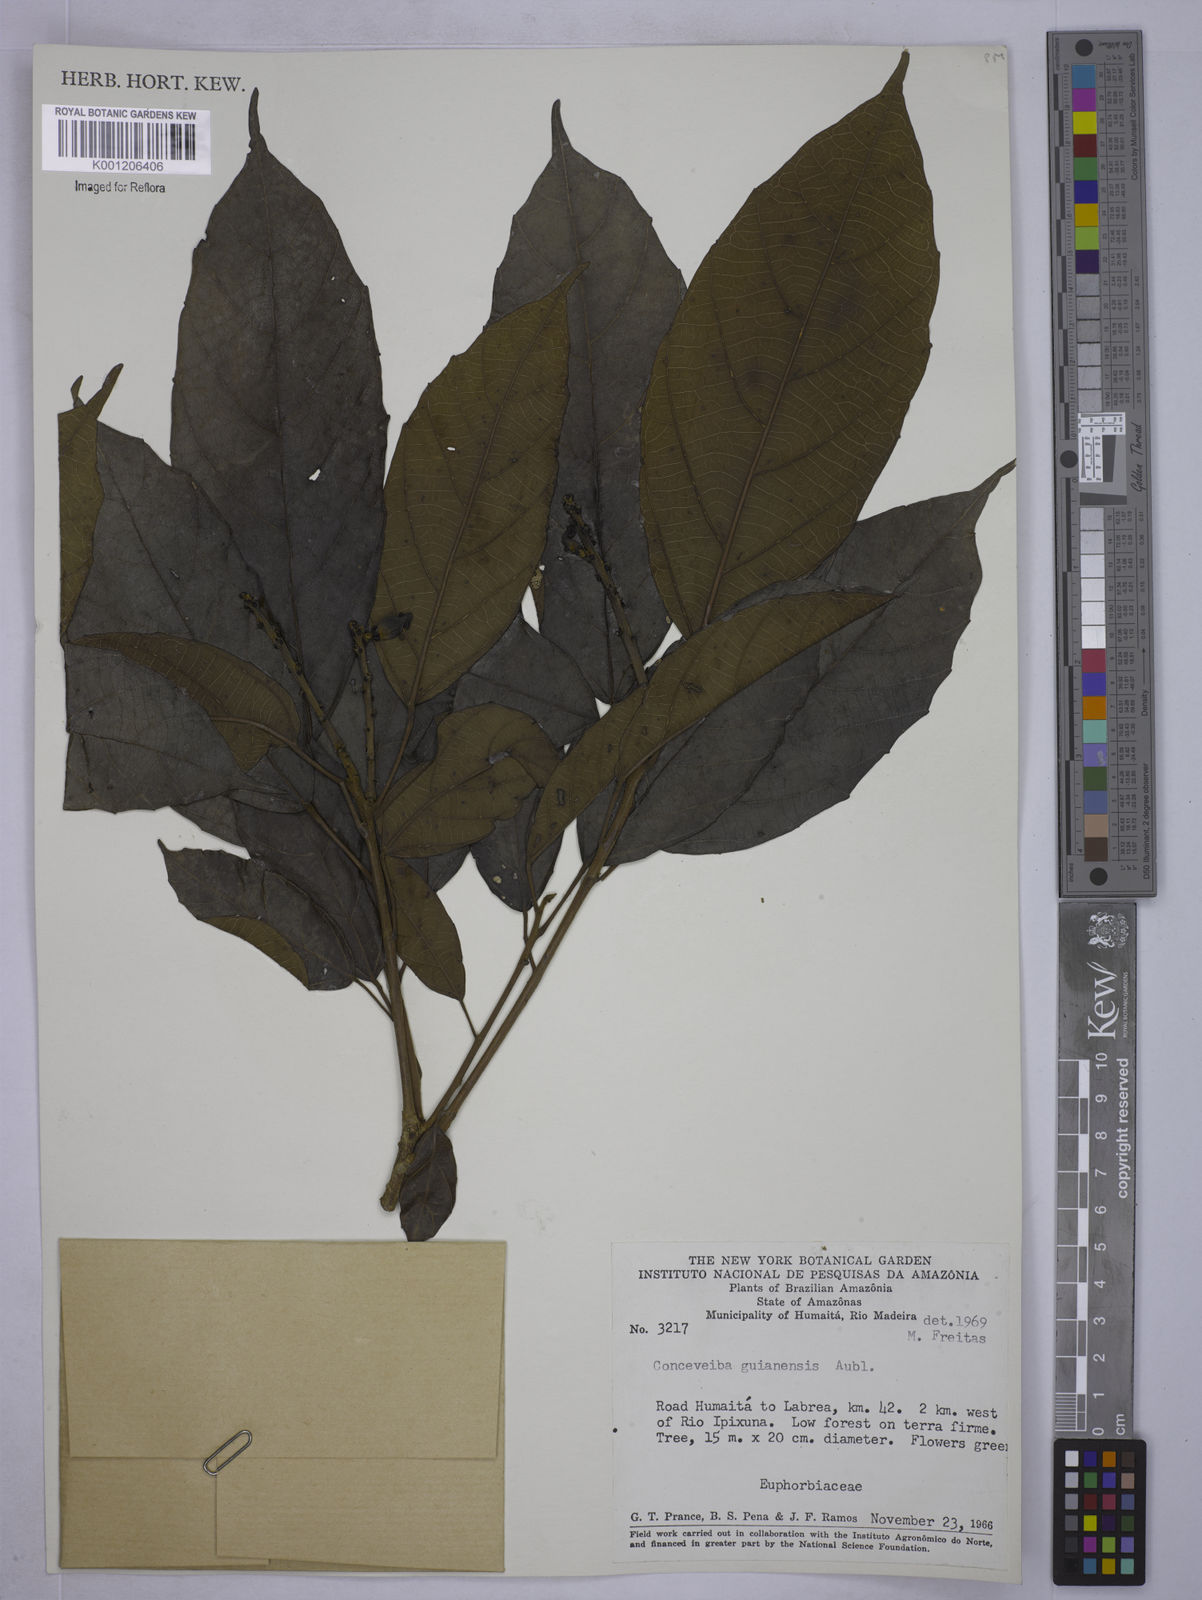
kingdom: Plantae
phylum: Tracheophyta
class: Magnoliopsida
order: Malpighiales
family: Euphorbiaceae
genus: Conceveiba
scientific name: Conceveiba guianensis
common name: Poatoru
